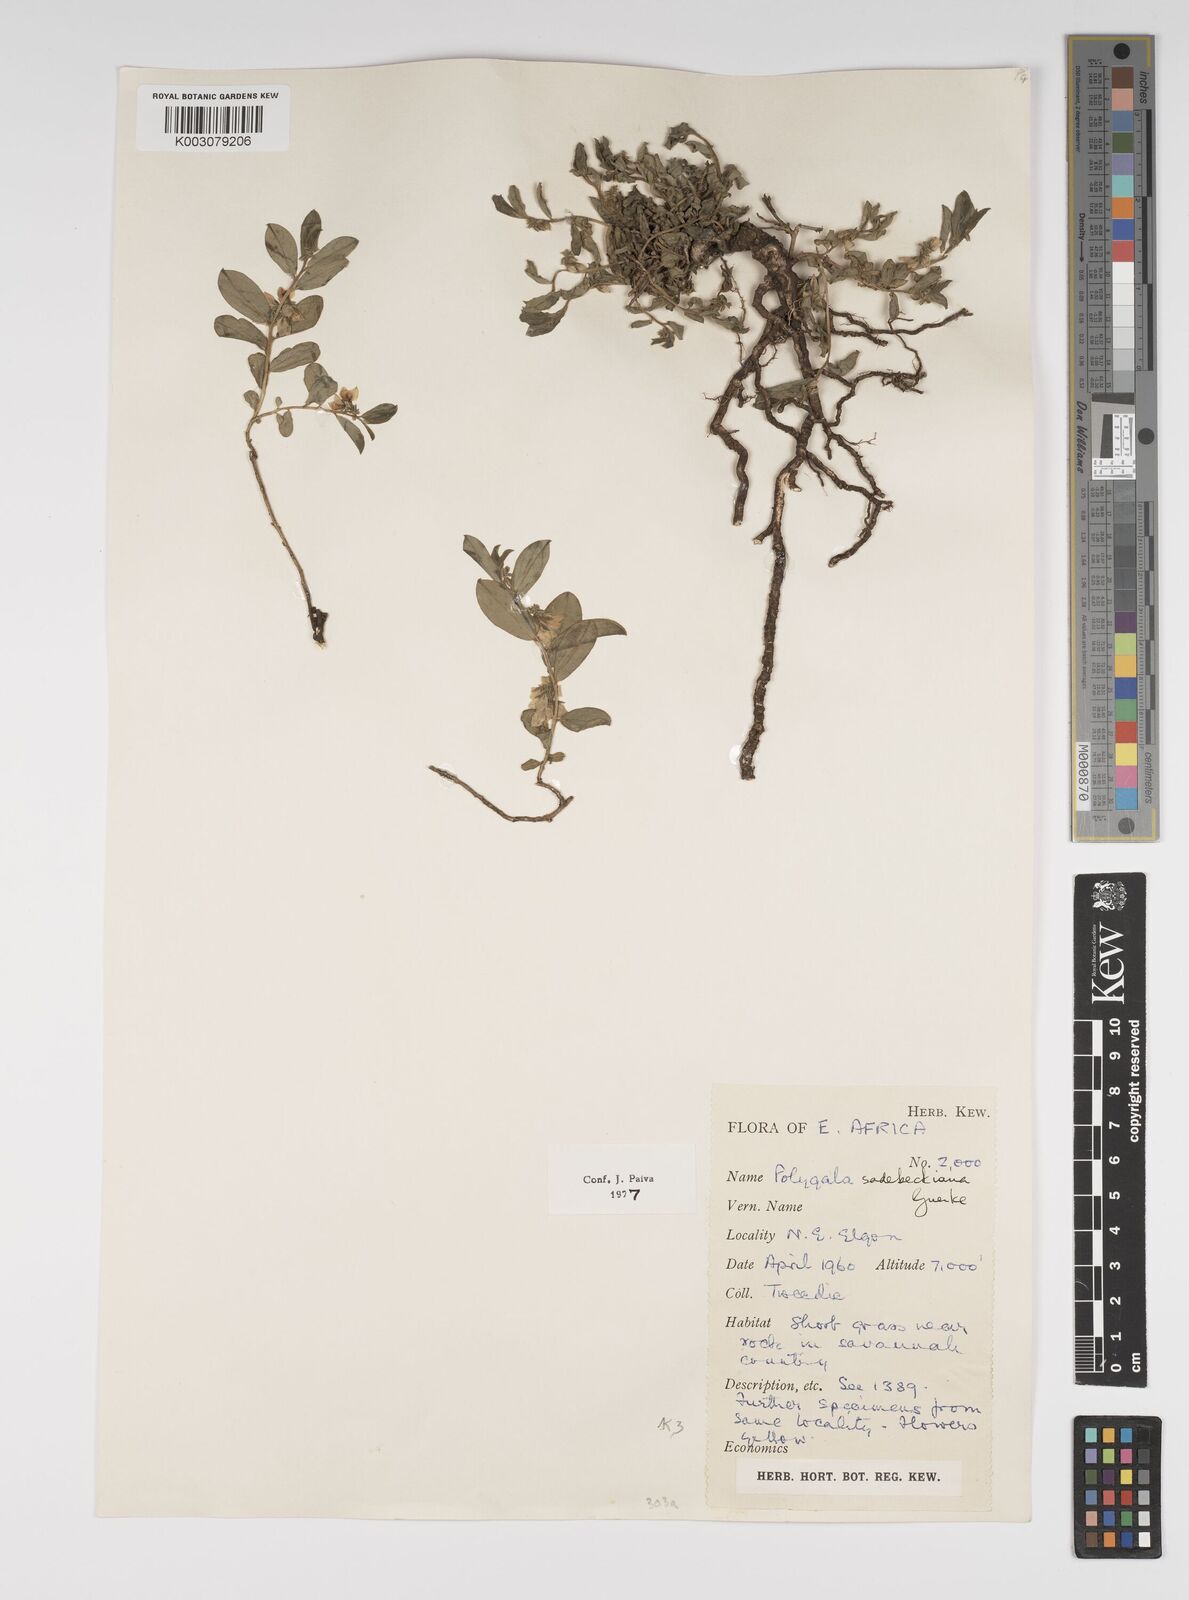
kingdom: Plantae
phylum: Tracheophyta
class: Magnoliopsida
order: Fabales
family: Polygalaceae
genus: Polygala
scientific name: Polygala sadebeckiana
